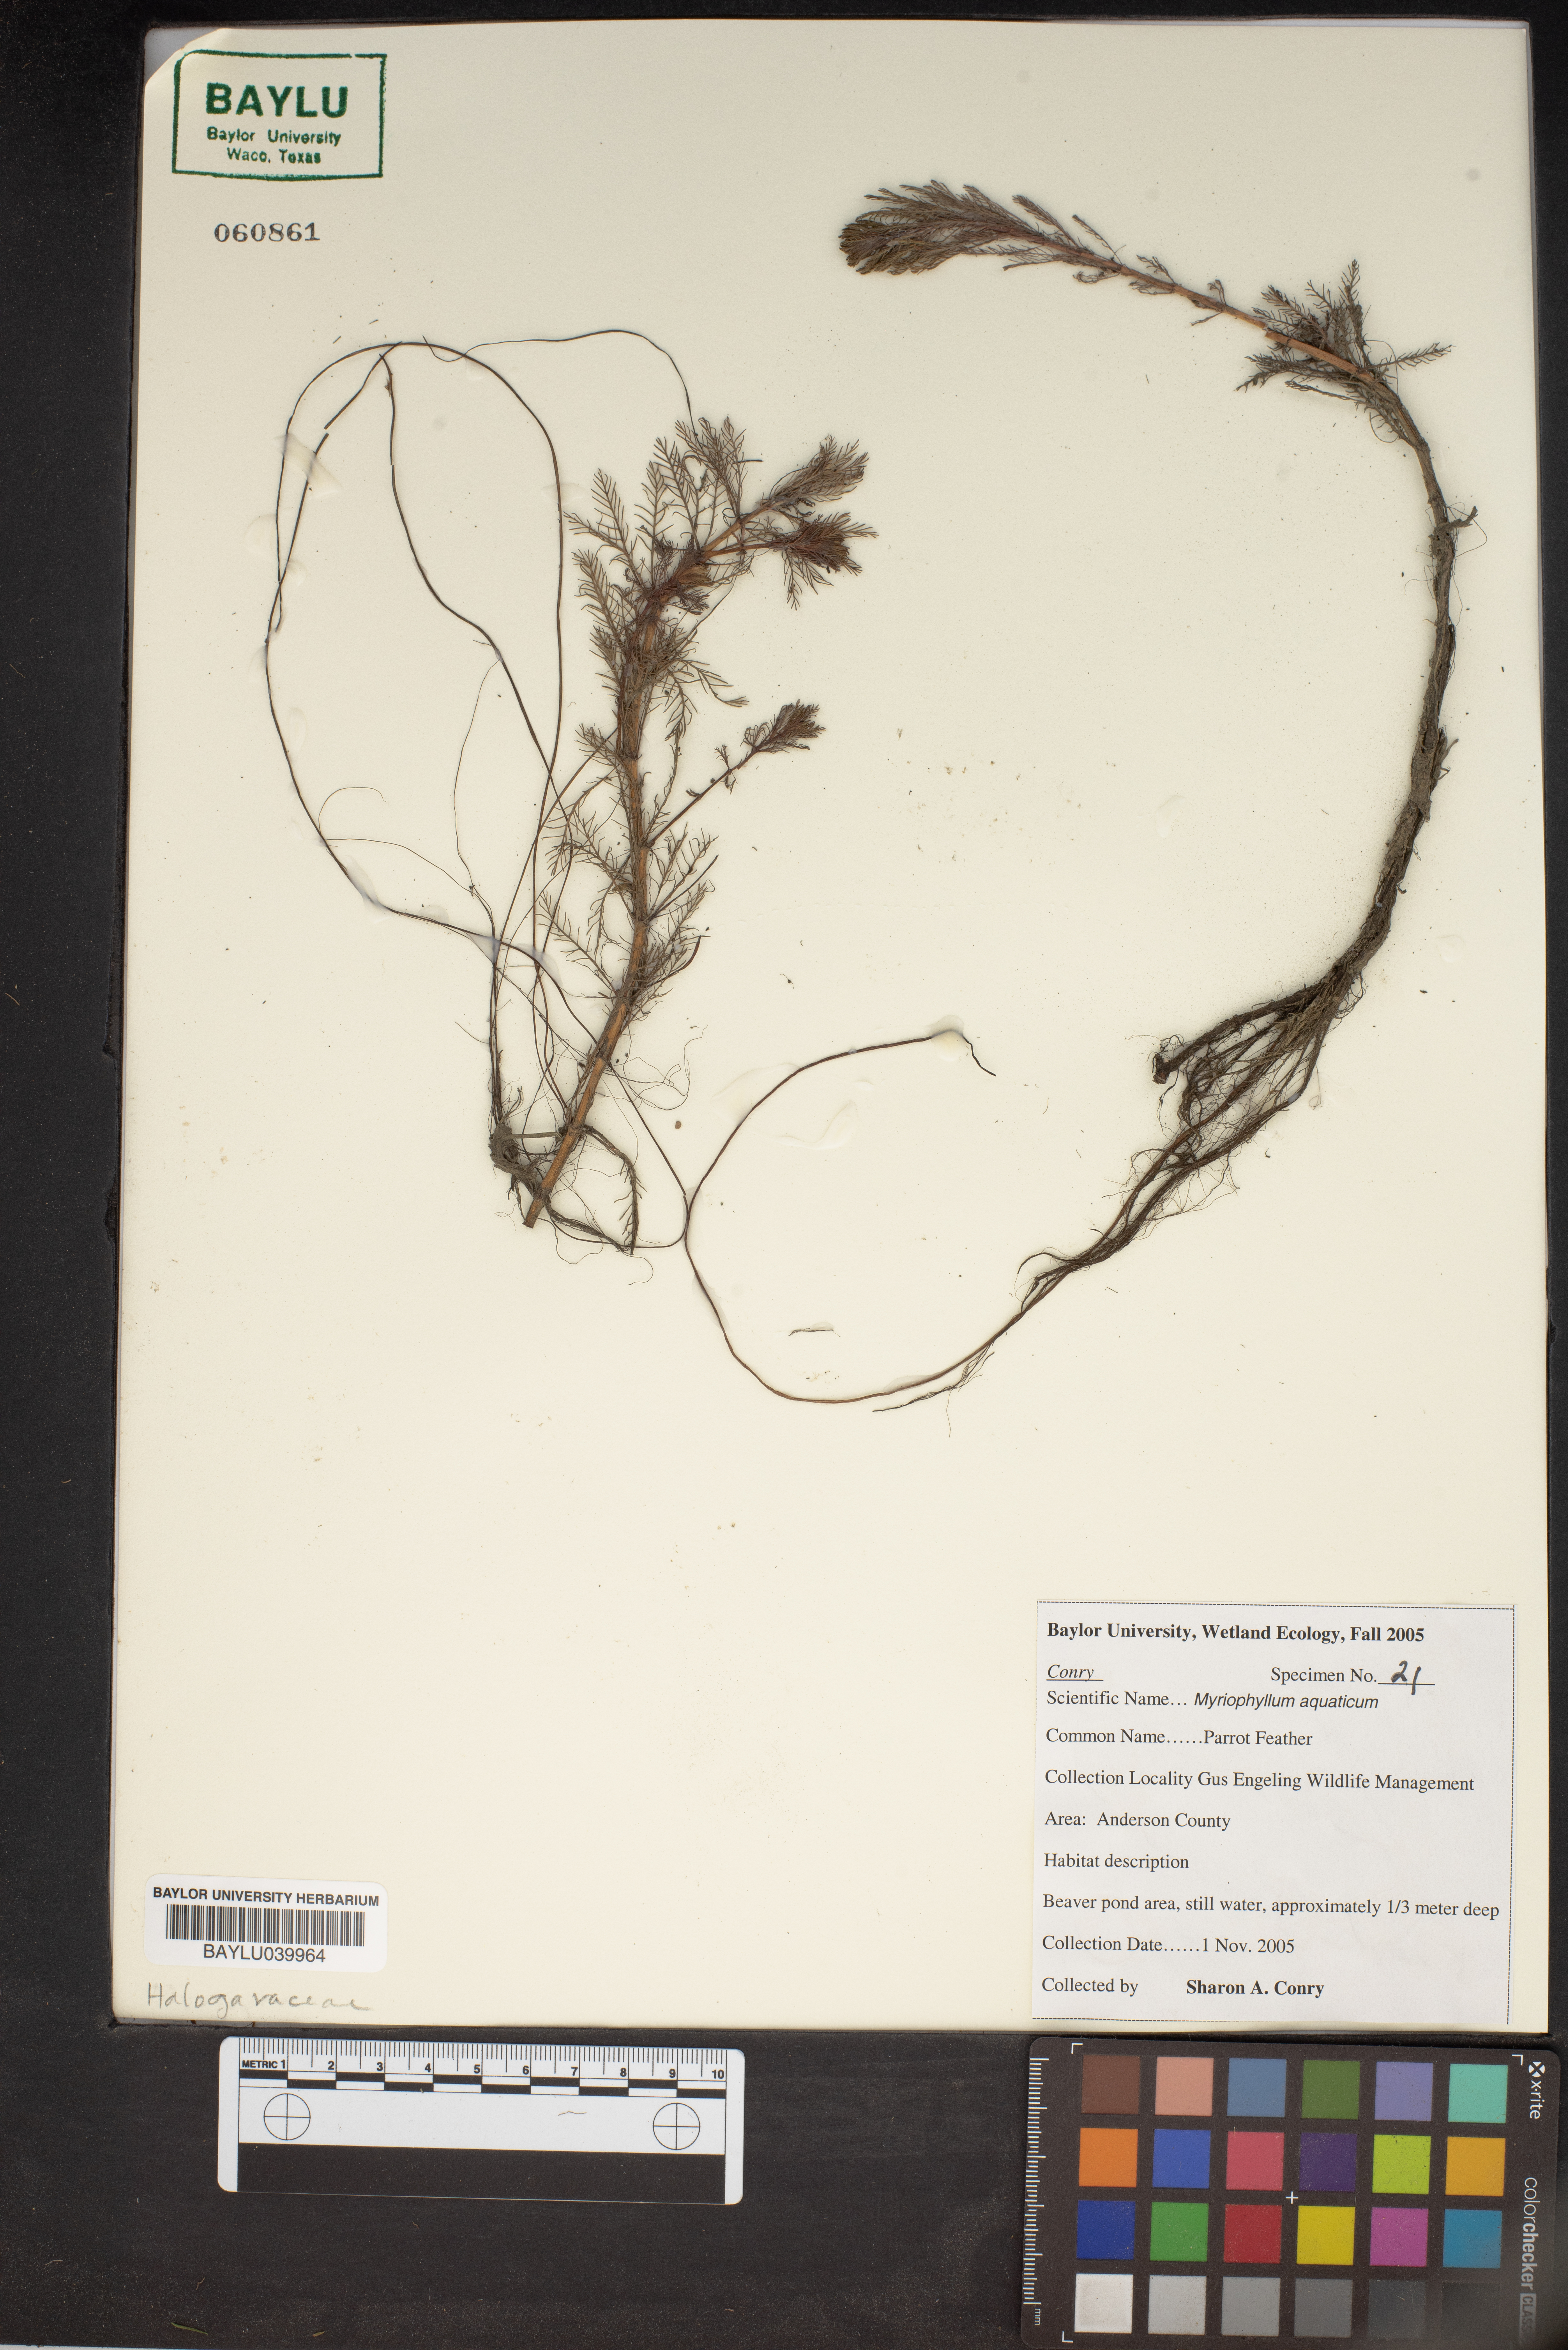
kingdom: Plantae
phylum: Tracheophyta
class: Magnoliopsida
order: Saxifragales
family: Haloragaceae
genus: Myriophyllum
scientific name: Myriophyllum aquaticum
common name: Parrot's feather
